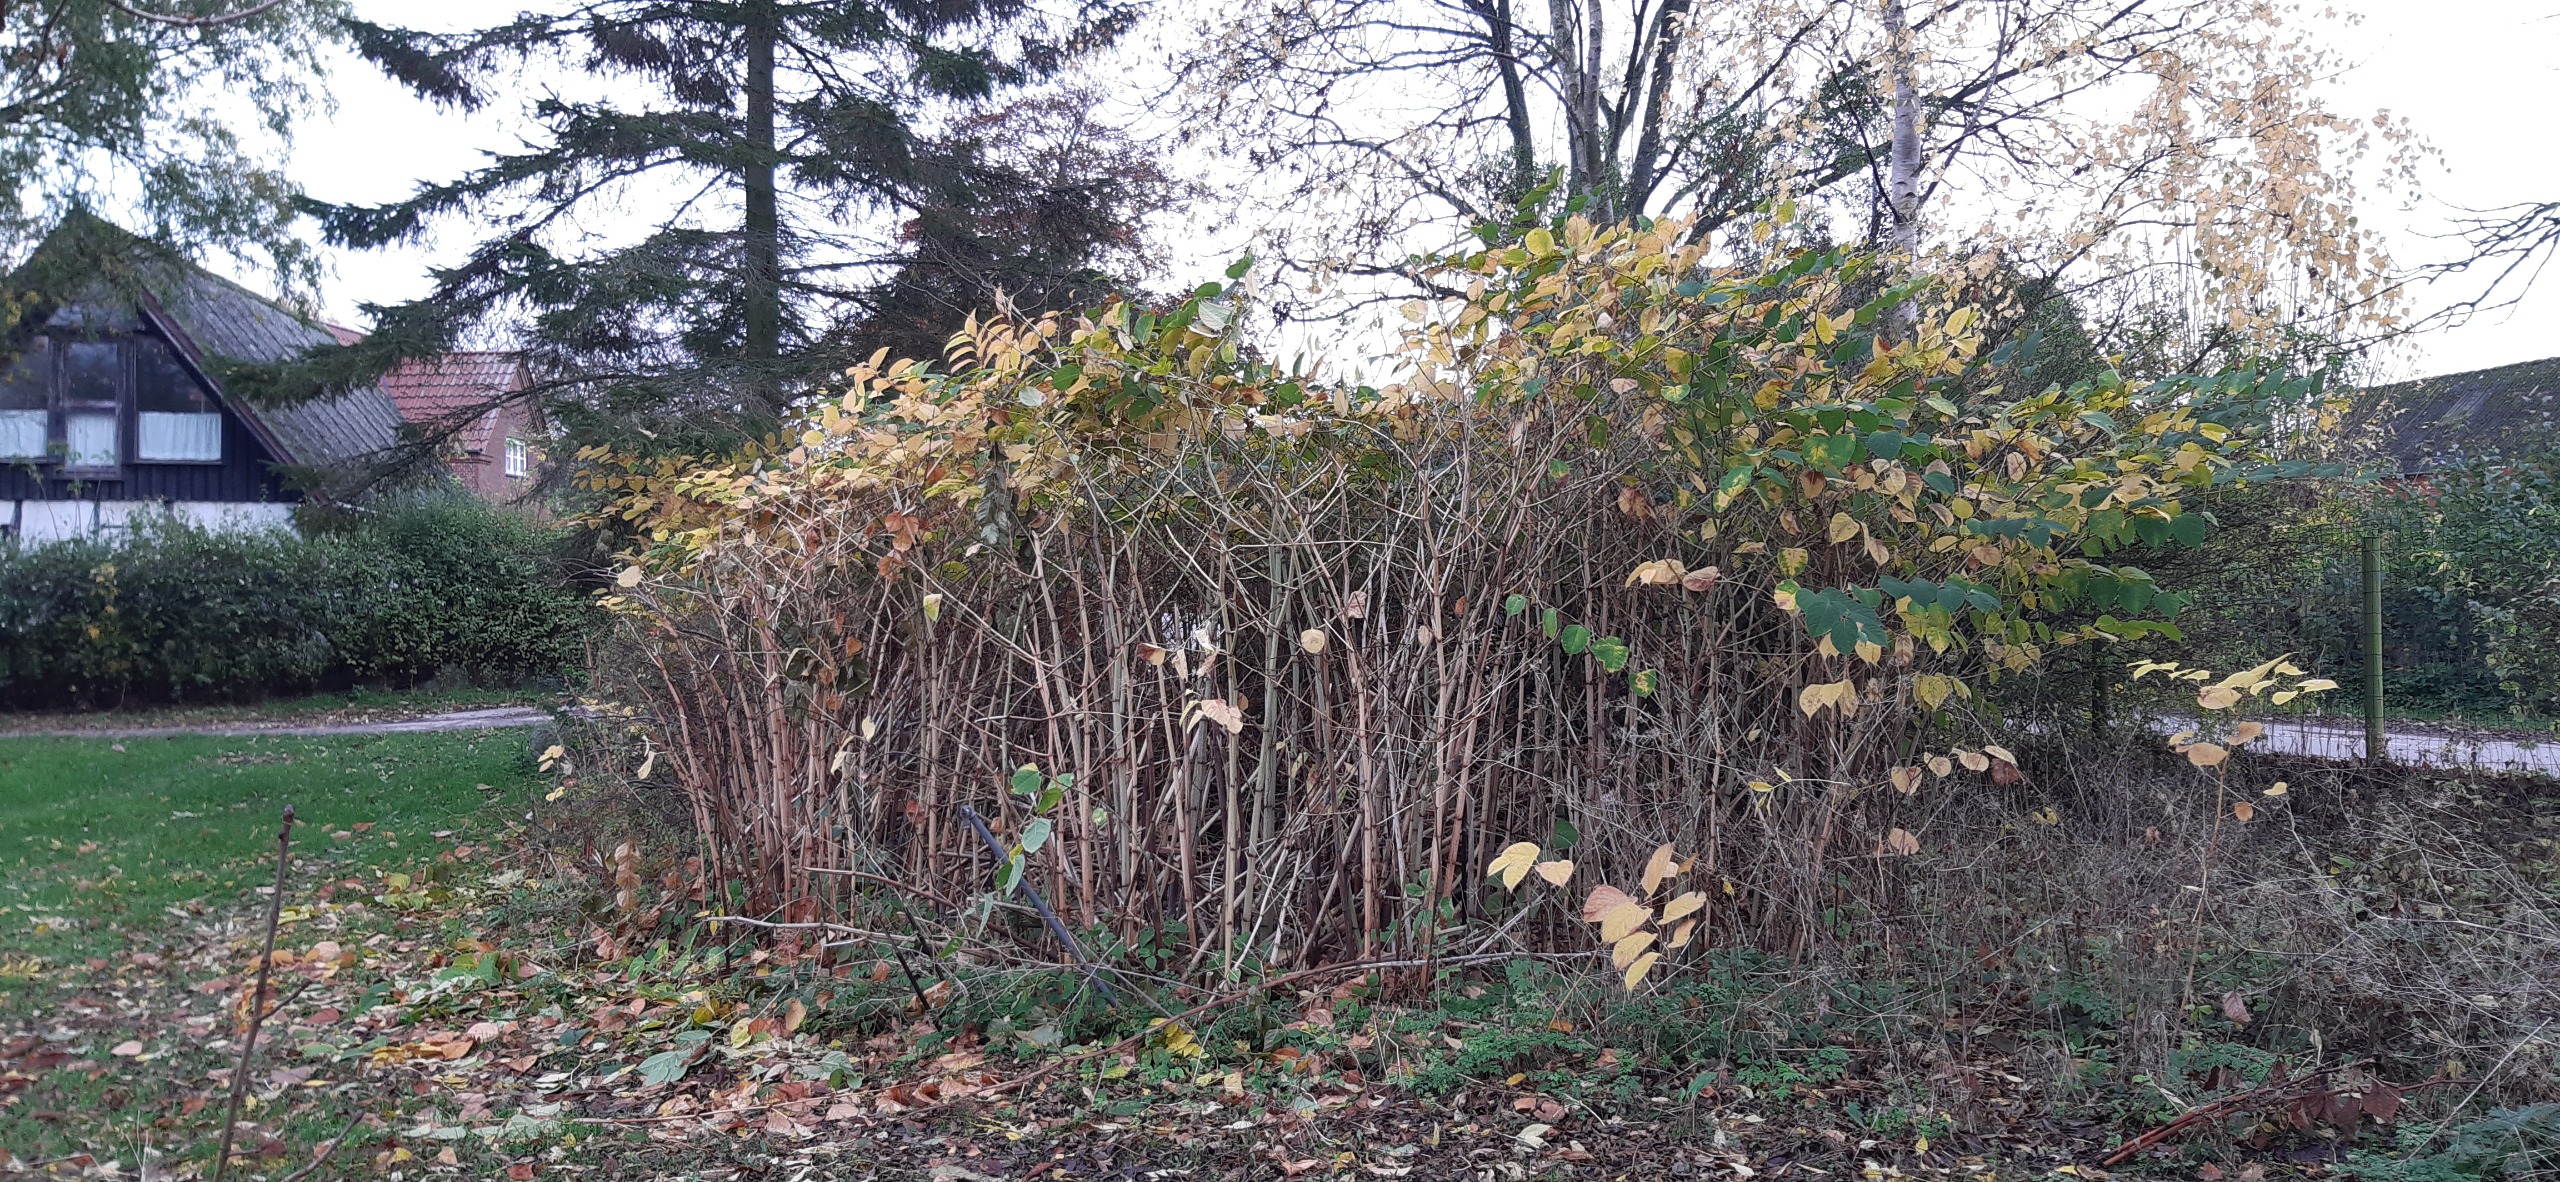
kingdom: Plantae
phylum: Tracheophyta
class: Magnoliopsida
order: Caryophyllales
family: Polygonaceae
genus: Reynoutria
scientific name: Reynoutria japonica
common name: Japan-pileurt
